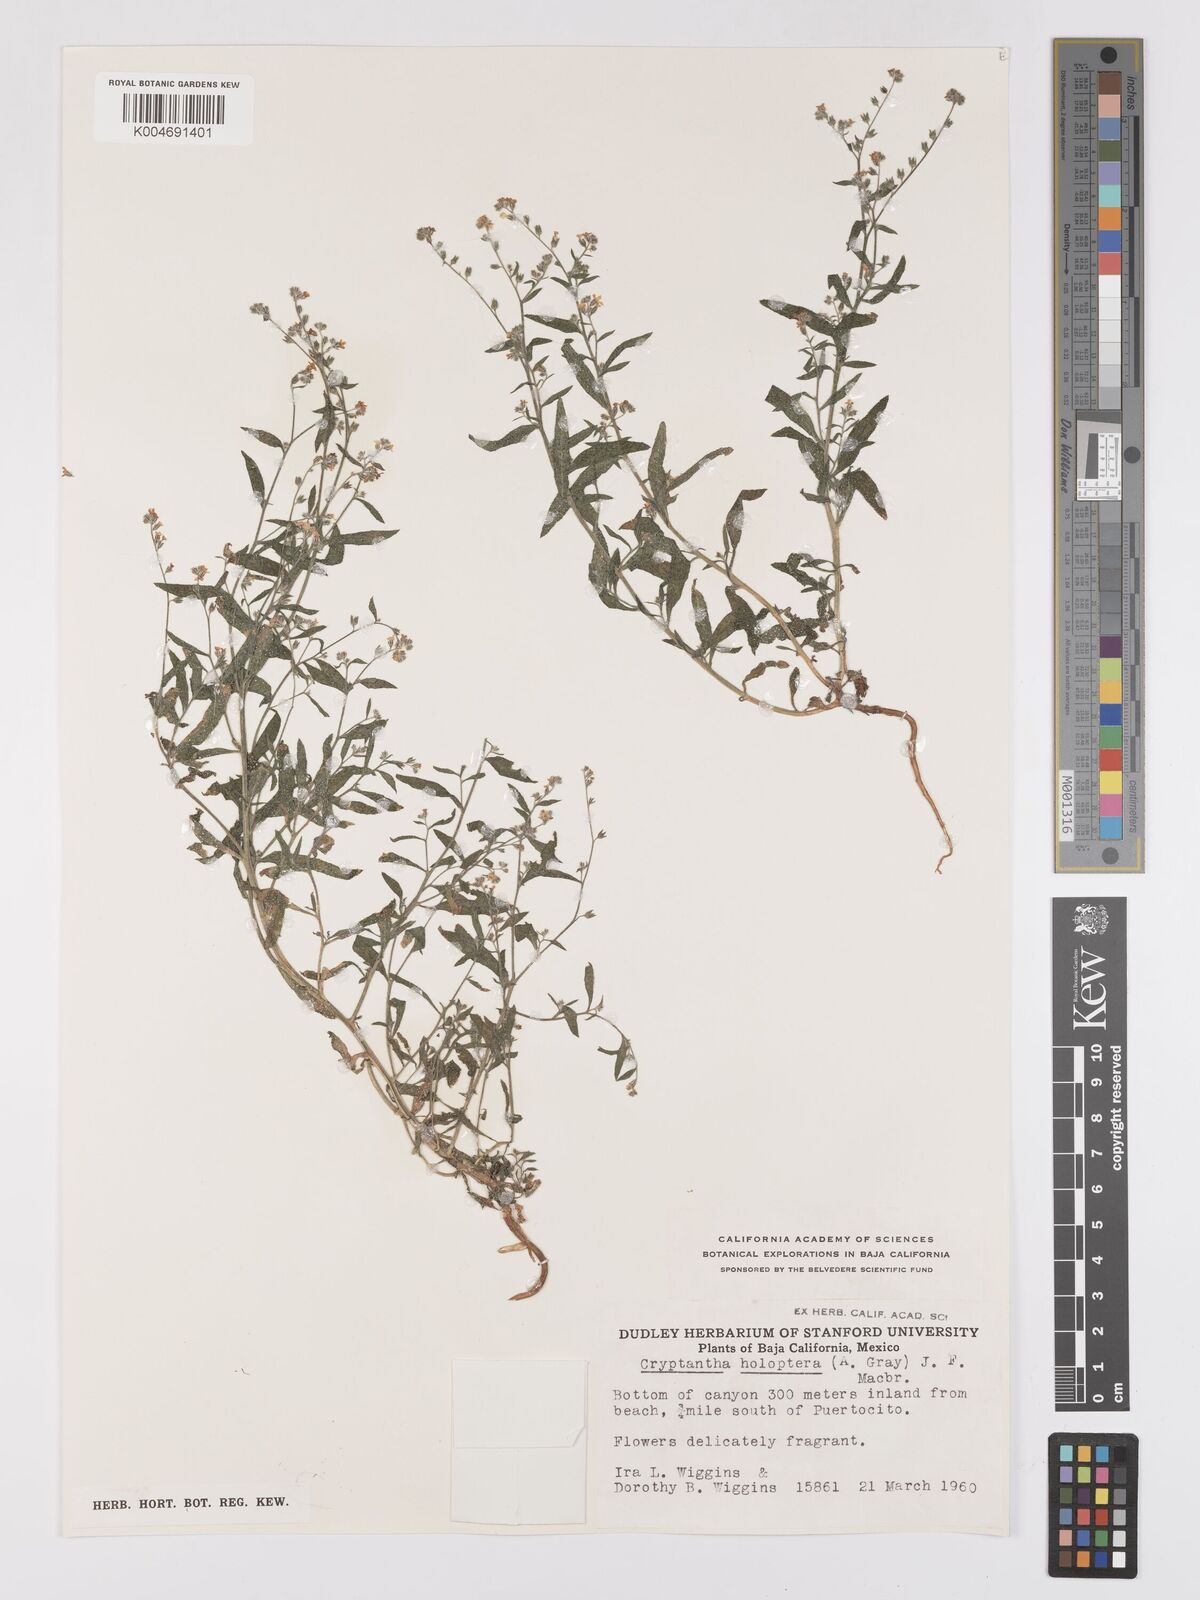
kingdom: Plantae
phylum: Tracheophyta
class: Magnoliopsida
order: Boraginales
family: Boraginaceae
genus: Johnstonella
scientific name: Johnstonella holoptera
